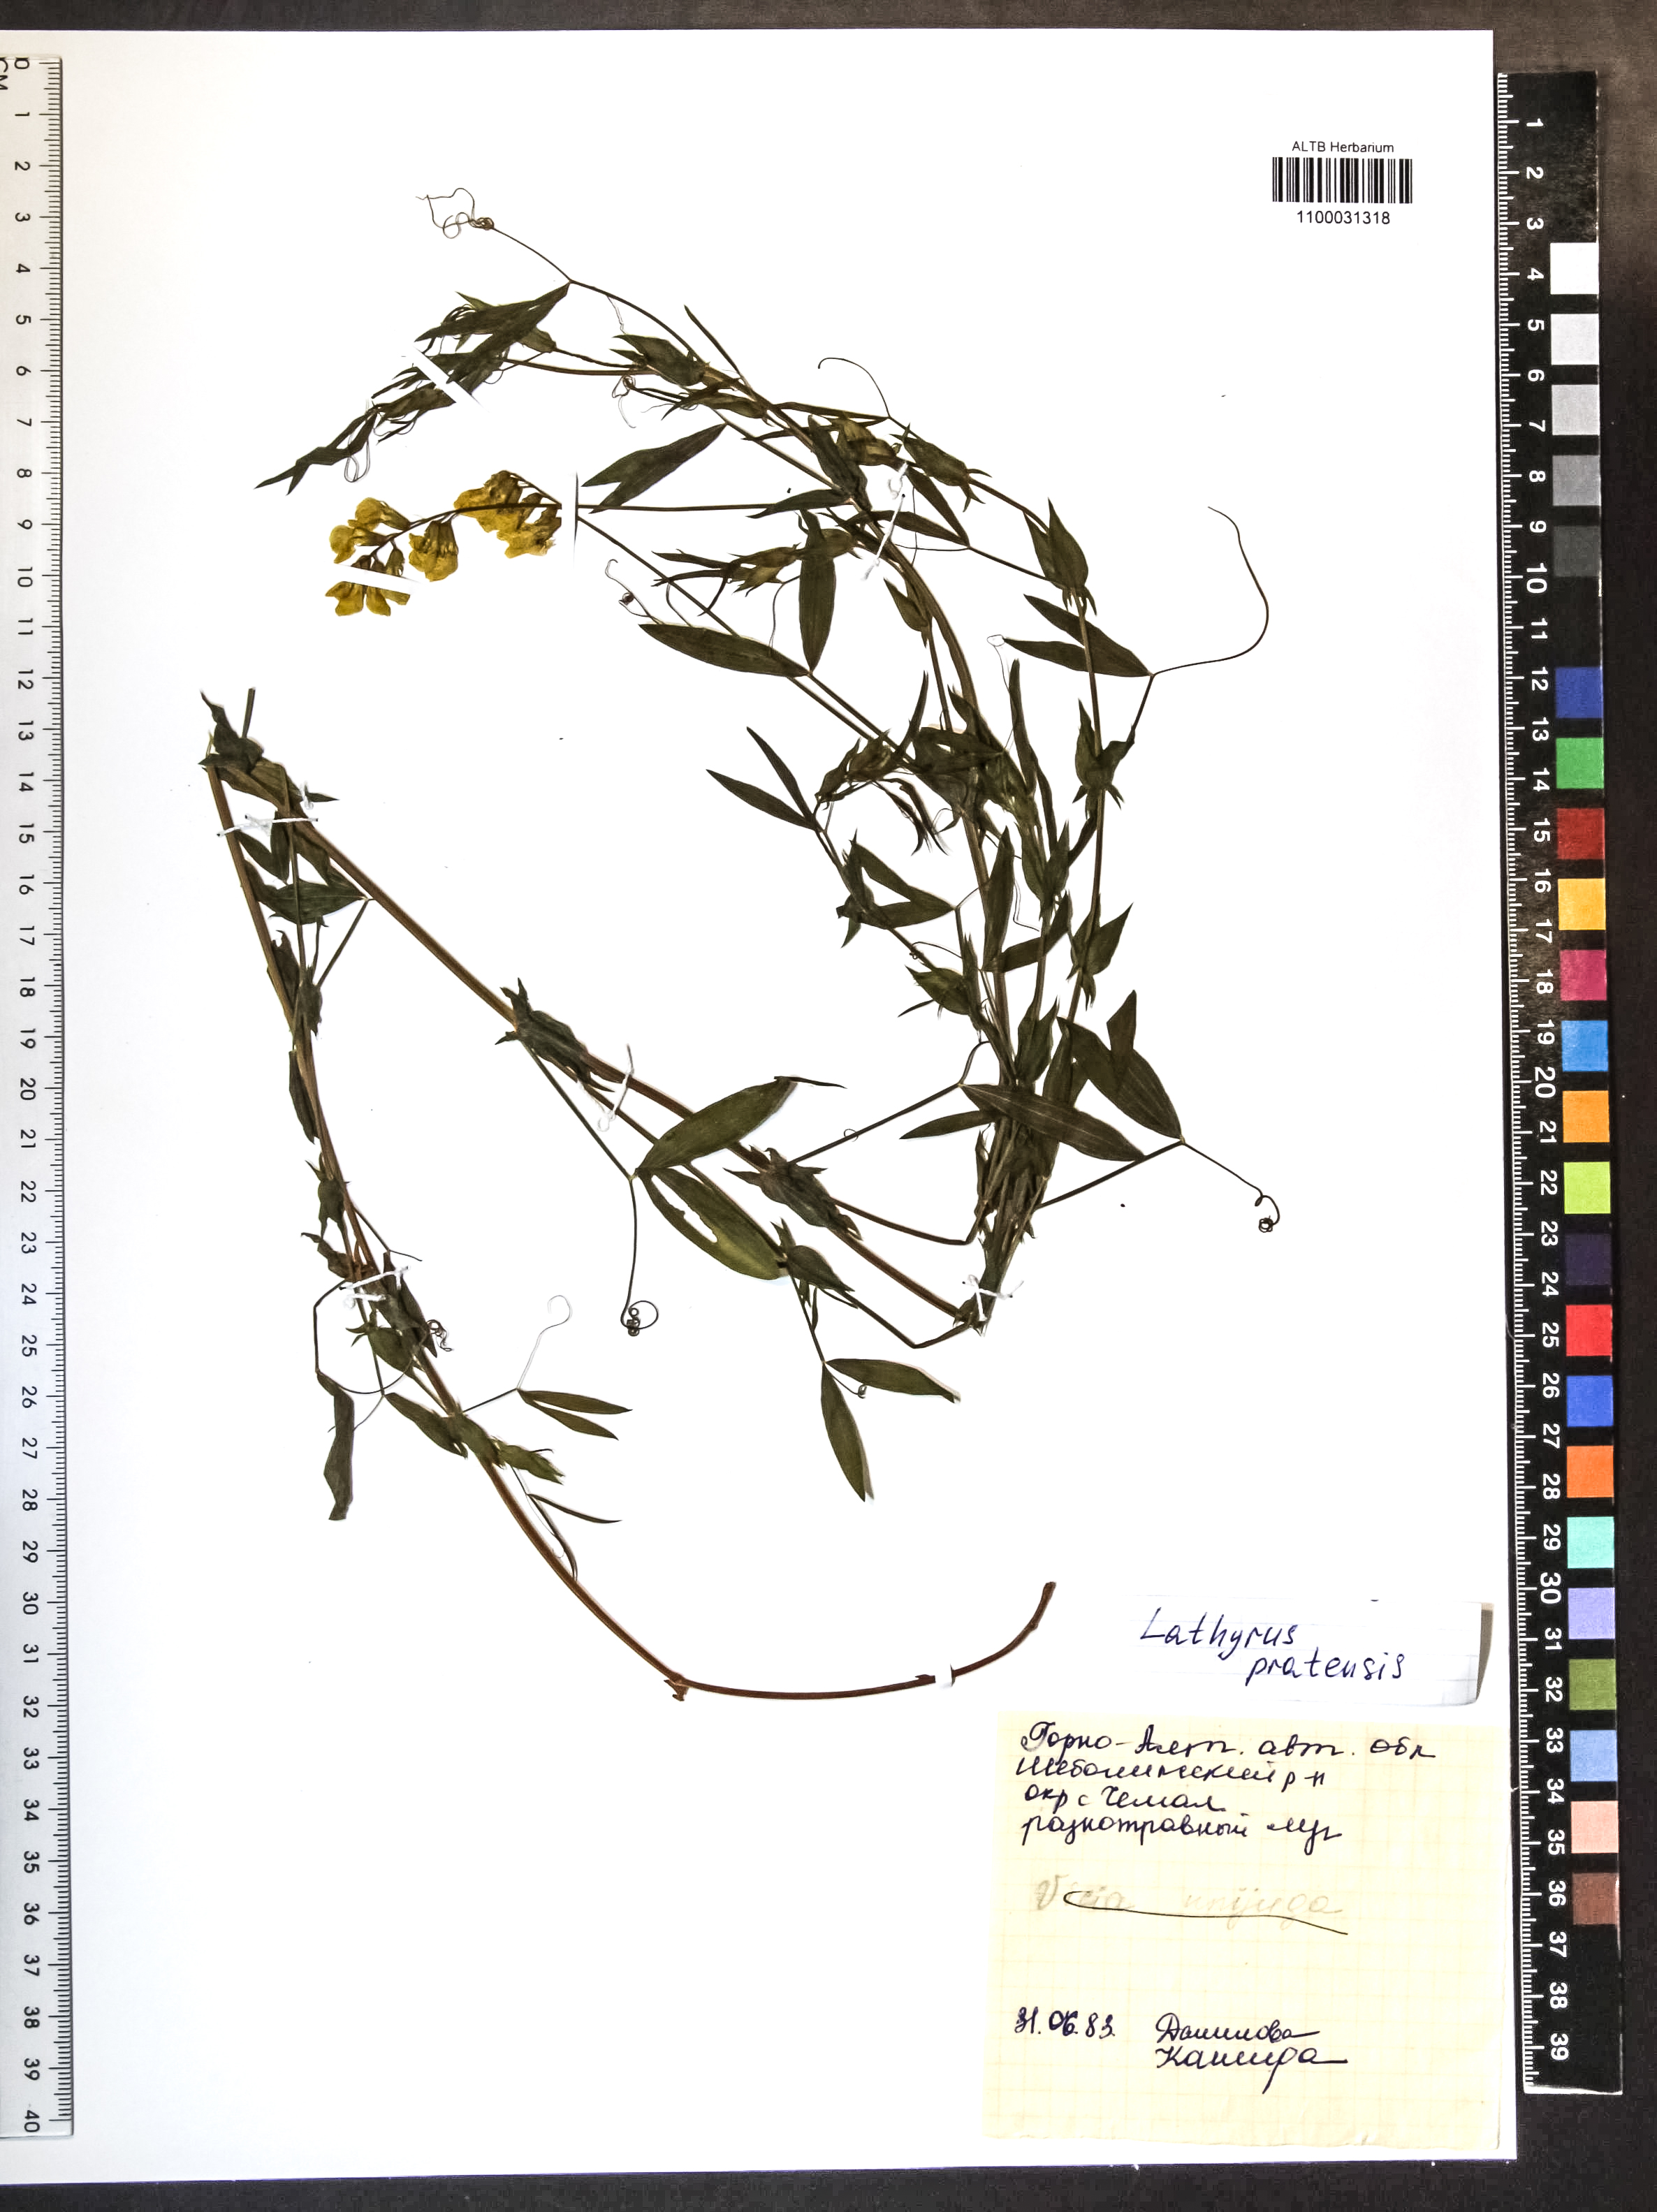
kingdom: Plantae
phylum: Tracheophyta
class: Magnoliopsida
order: Fabales
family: Fabaceae
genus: Lathyrus
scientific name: Lathyrus pratensis
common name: Meadow vetchling
